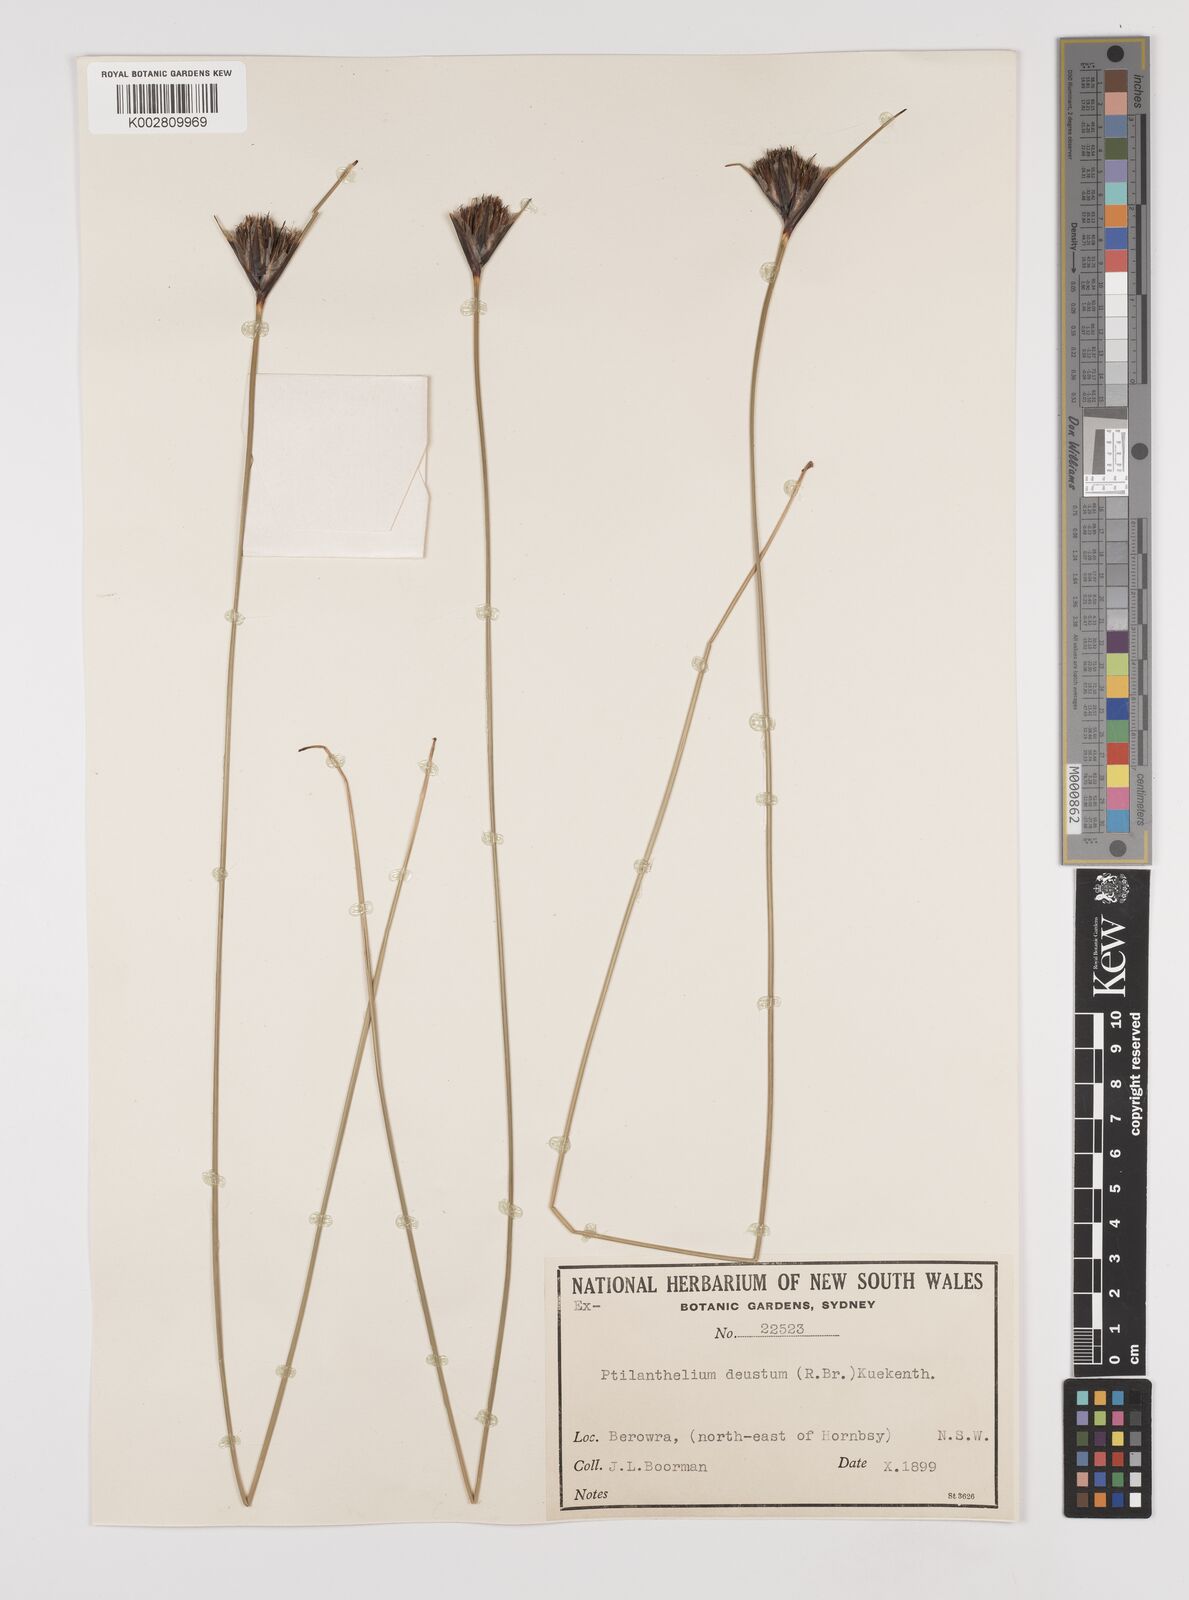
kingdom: Plantae
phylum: Tracheophyta
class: Liliopsida
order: Poales
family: Cyperaceae
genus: Ptilothrix
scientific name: Ptilothrix deusta
